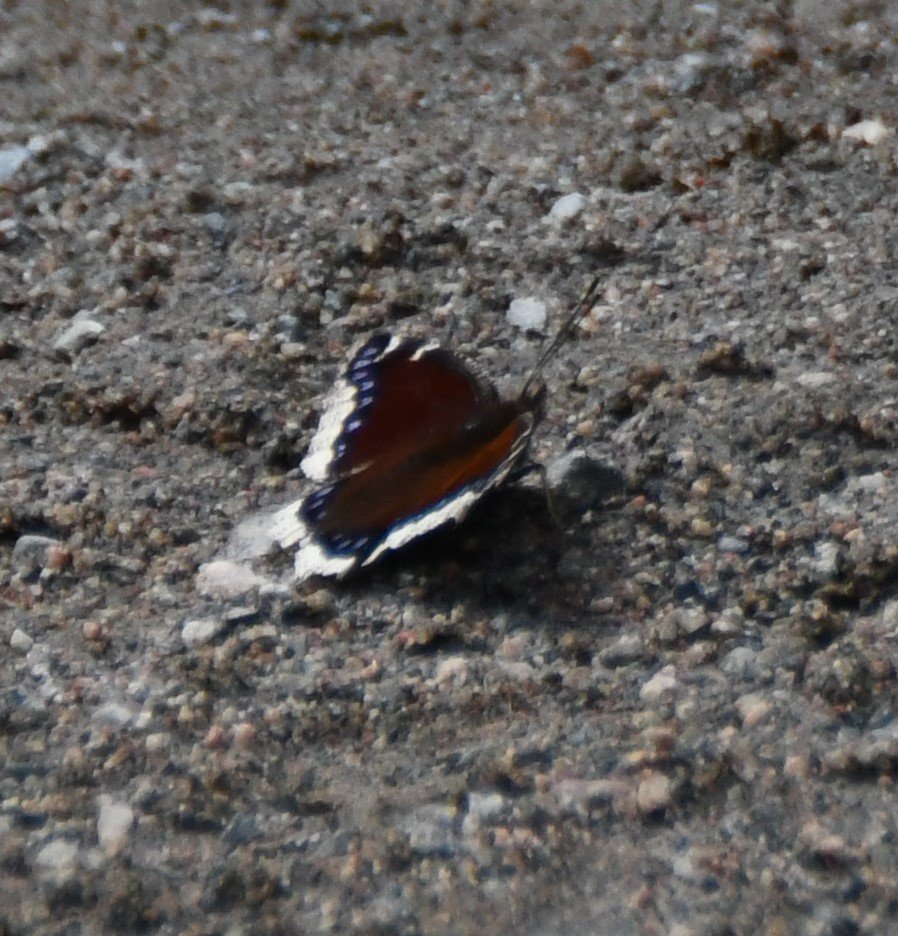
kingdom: Animalia
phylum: Arthropoda
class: Insecta
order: Lepidoptera
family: Nymphalidae
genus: Nymphalis
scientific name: Nymphalis antiopa
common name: Mourning Cloak
